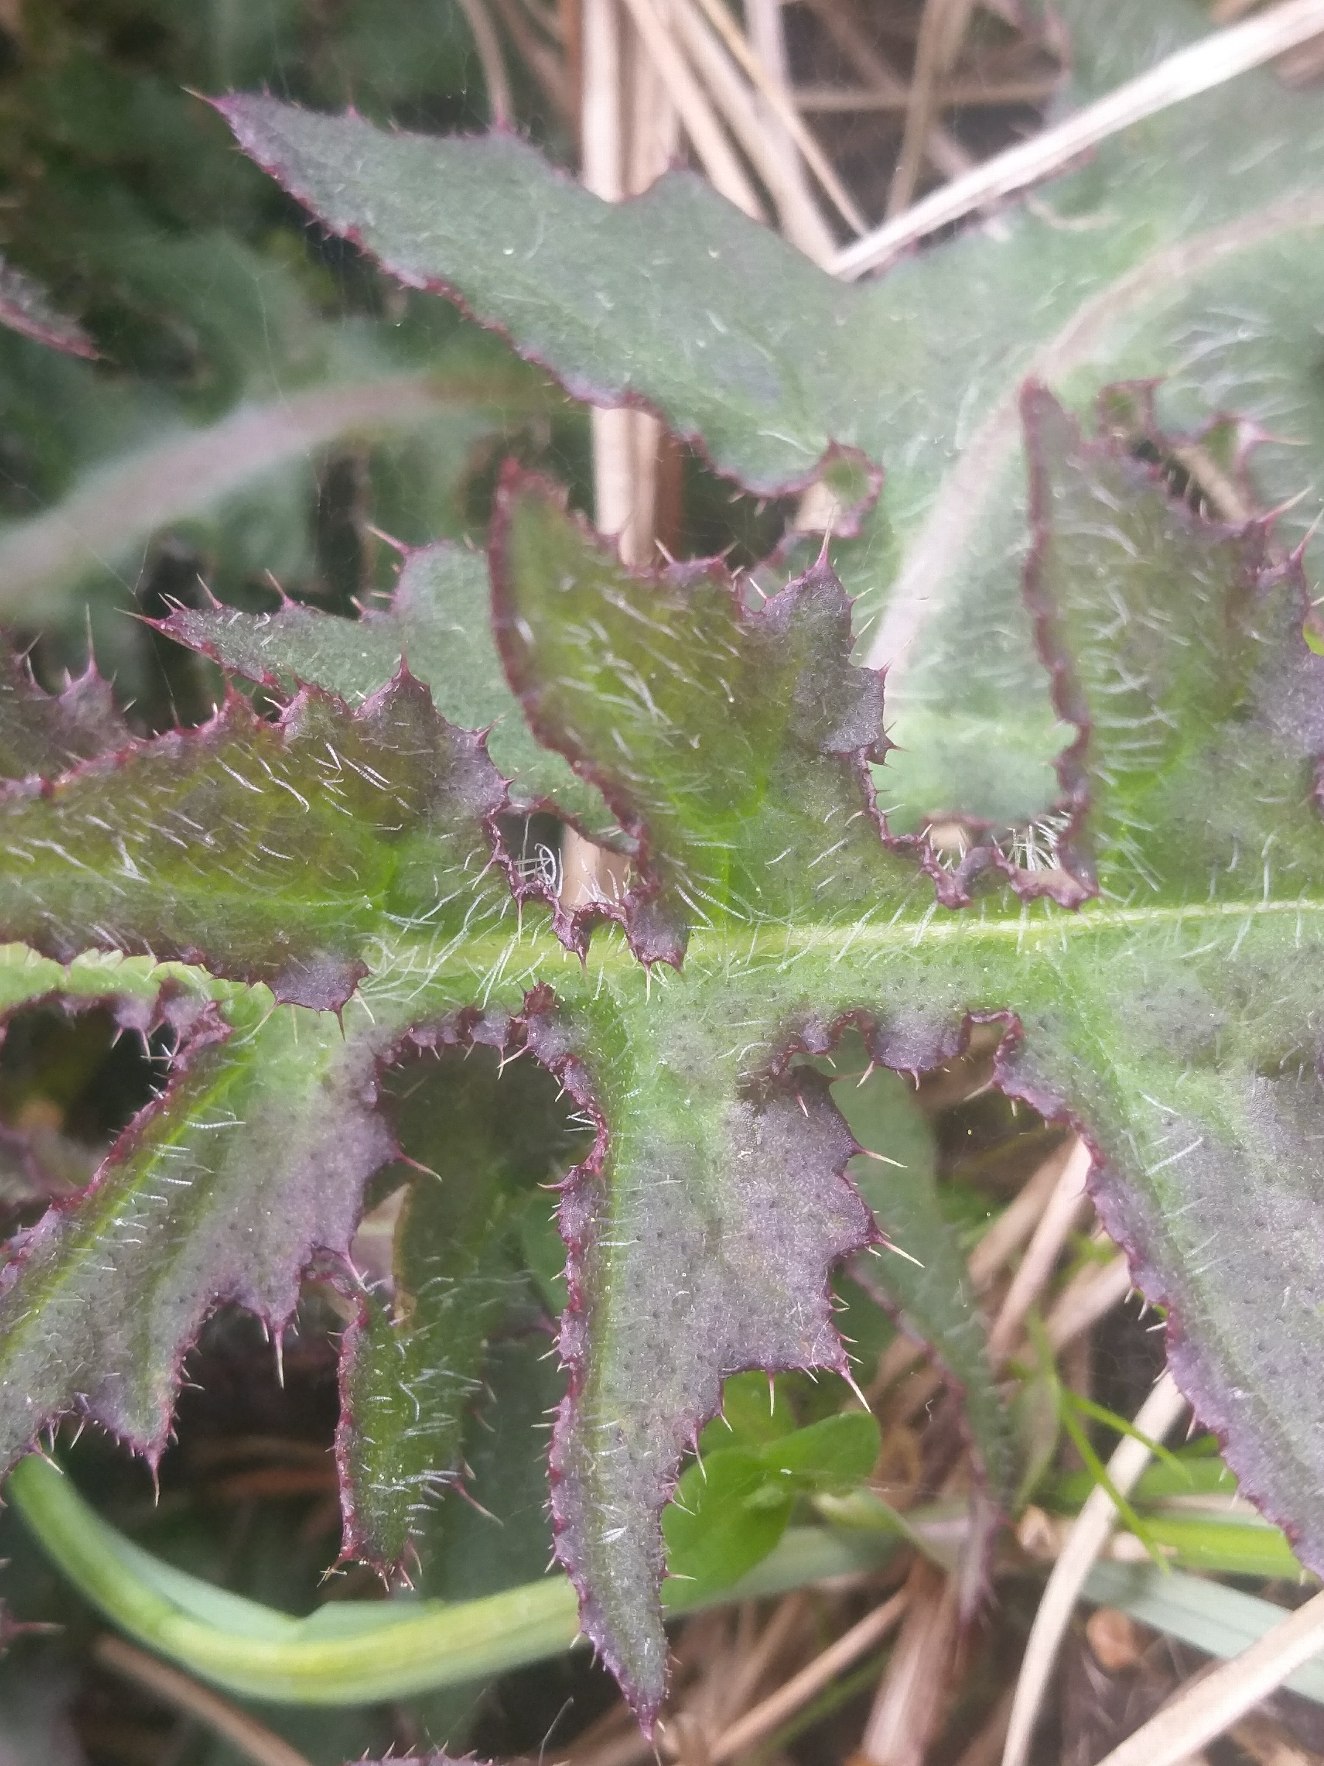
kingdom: Plantae
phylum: Tracheophyta
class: Magnoliopsida
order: Asterales
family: Asteraceae
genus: Cirsium
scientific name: Cirsium palustre
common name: Kær-tidsel
